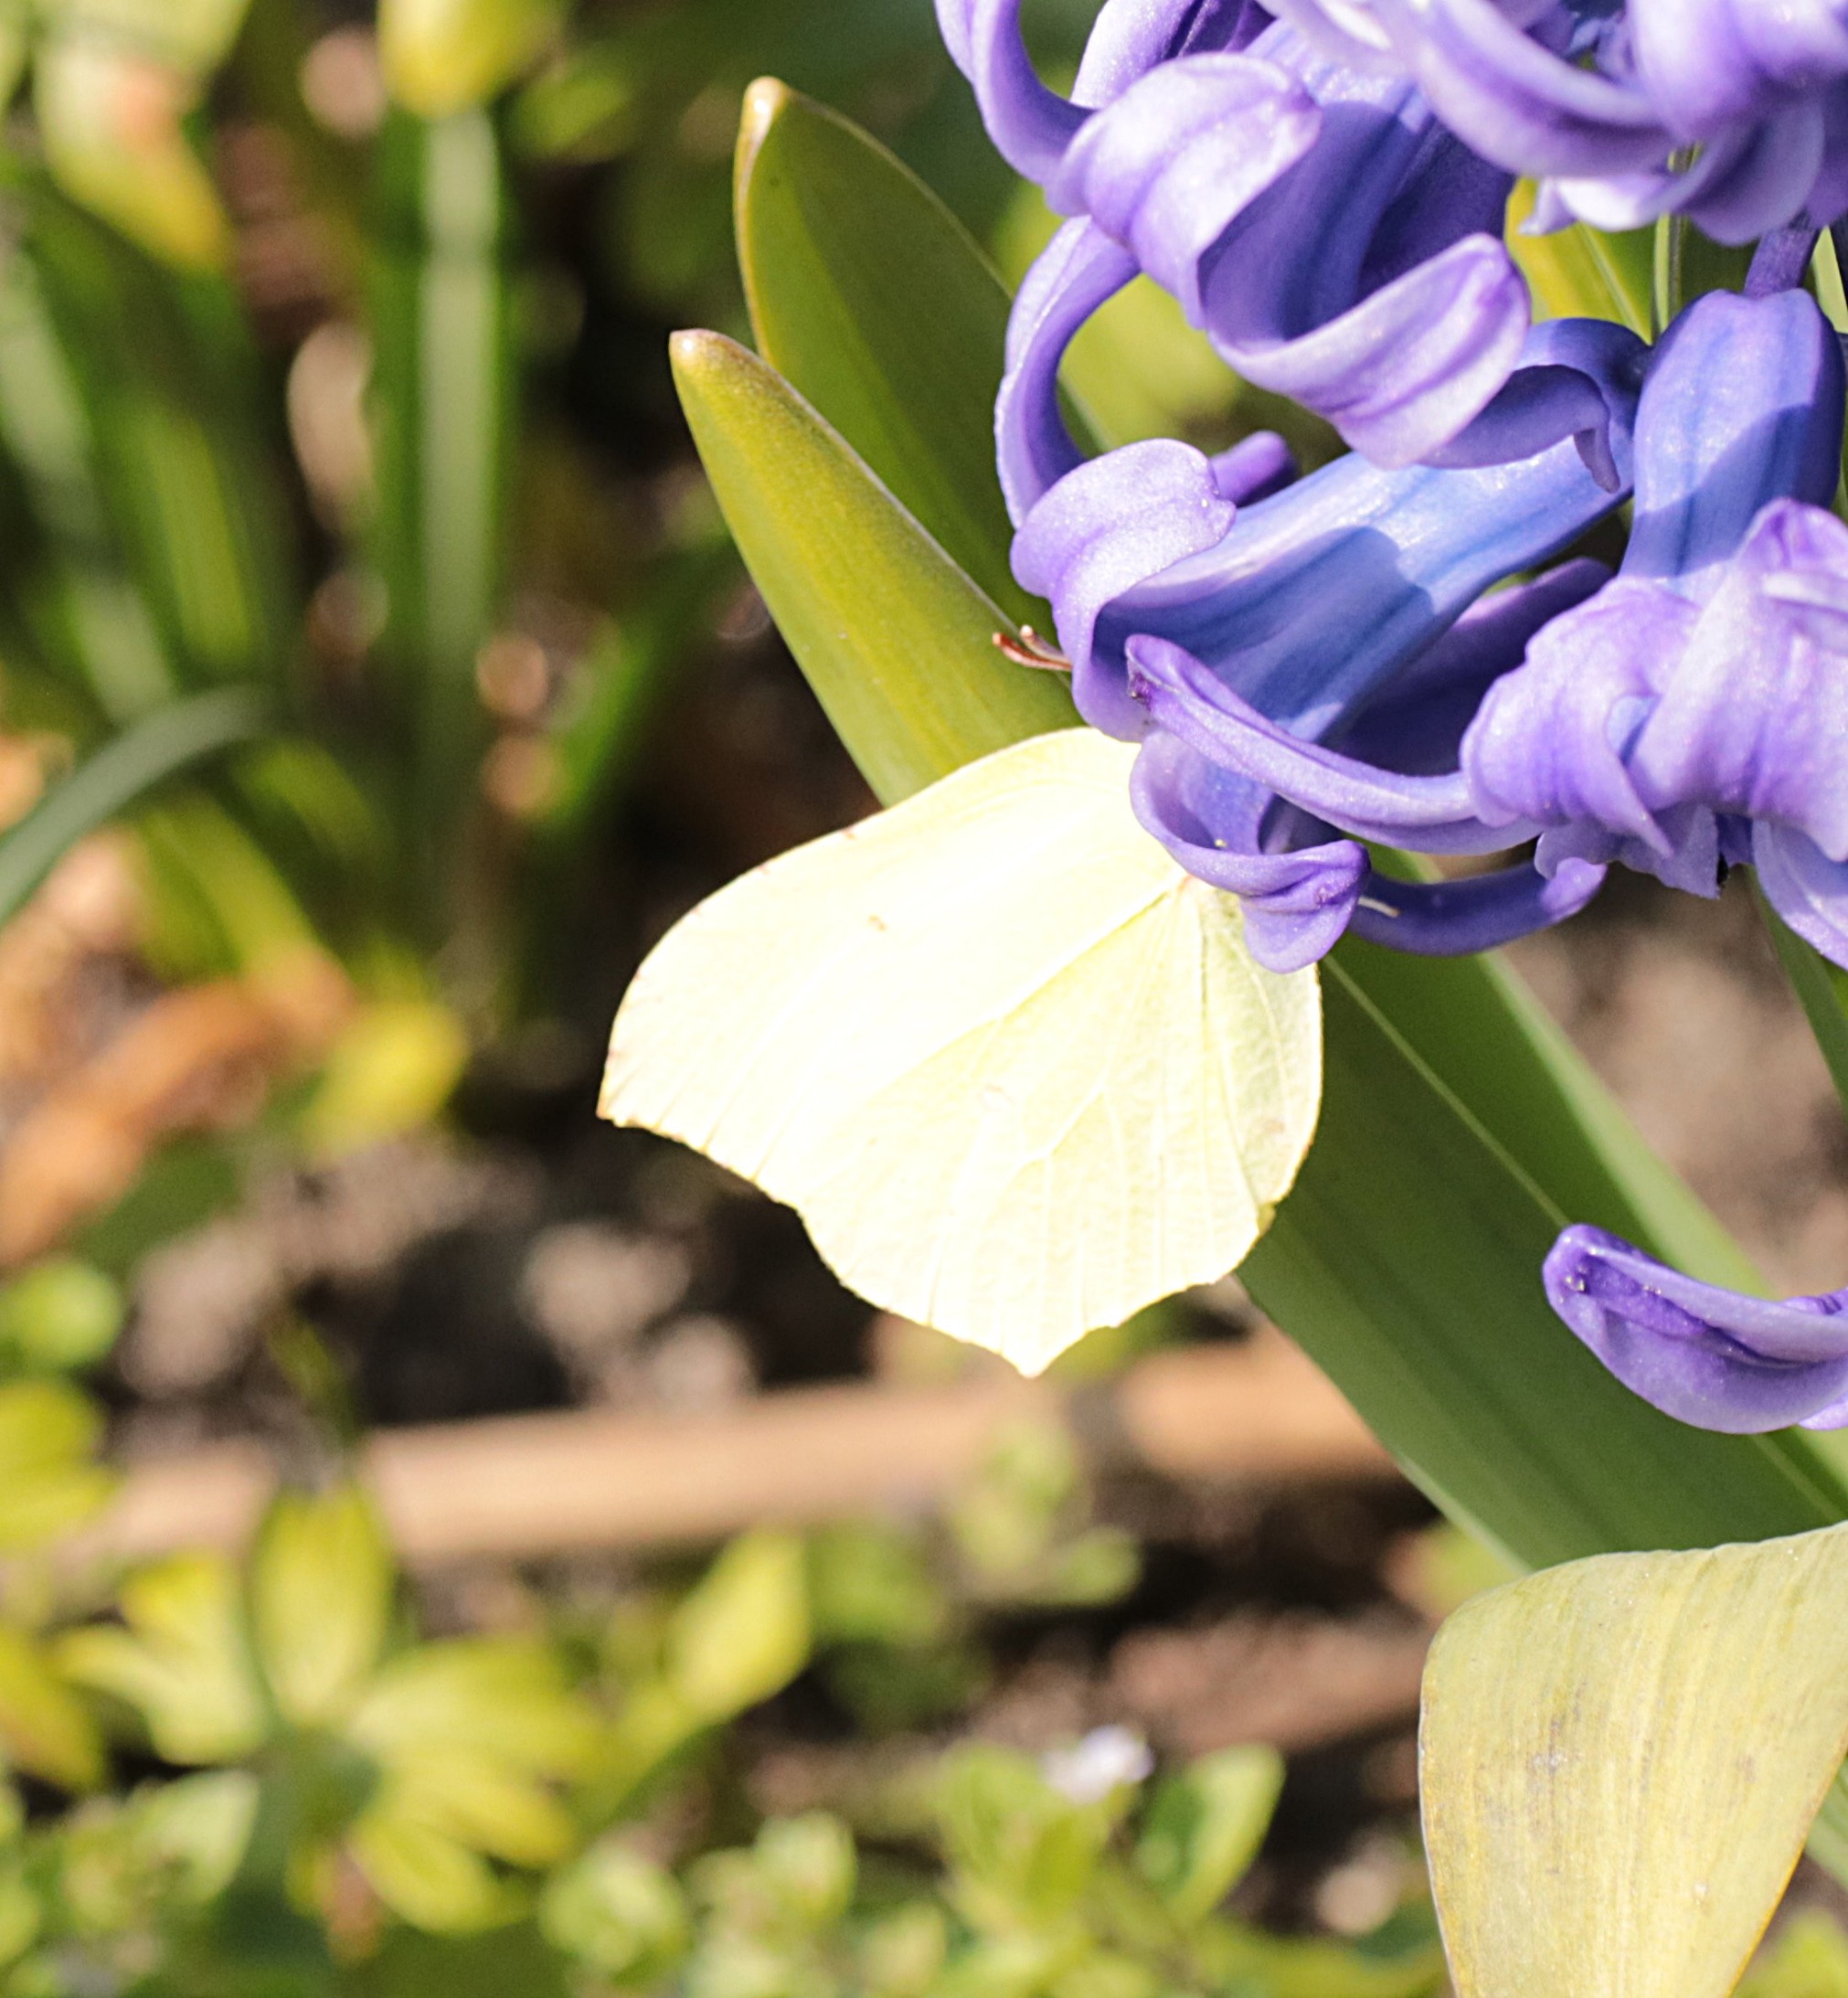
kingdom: Animalia
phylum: Arthropoda
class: Insecta
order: Lepidoptera
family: Pieridae
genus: Gonepteryx
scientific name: Gonepteryx rhamni
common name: Citronsommerfugl
